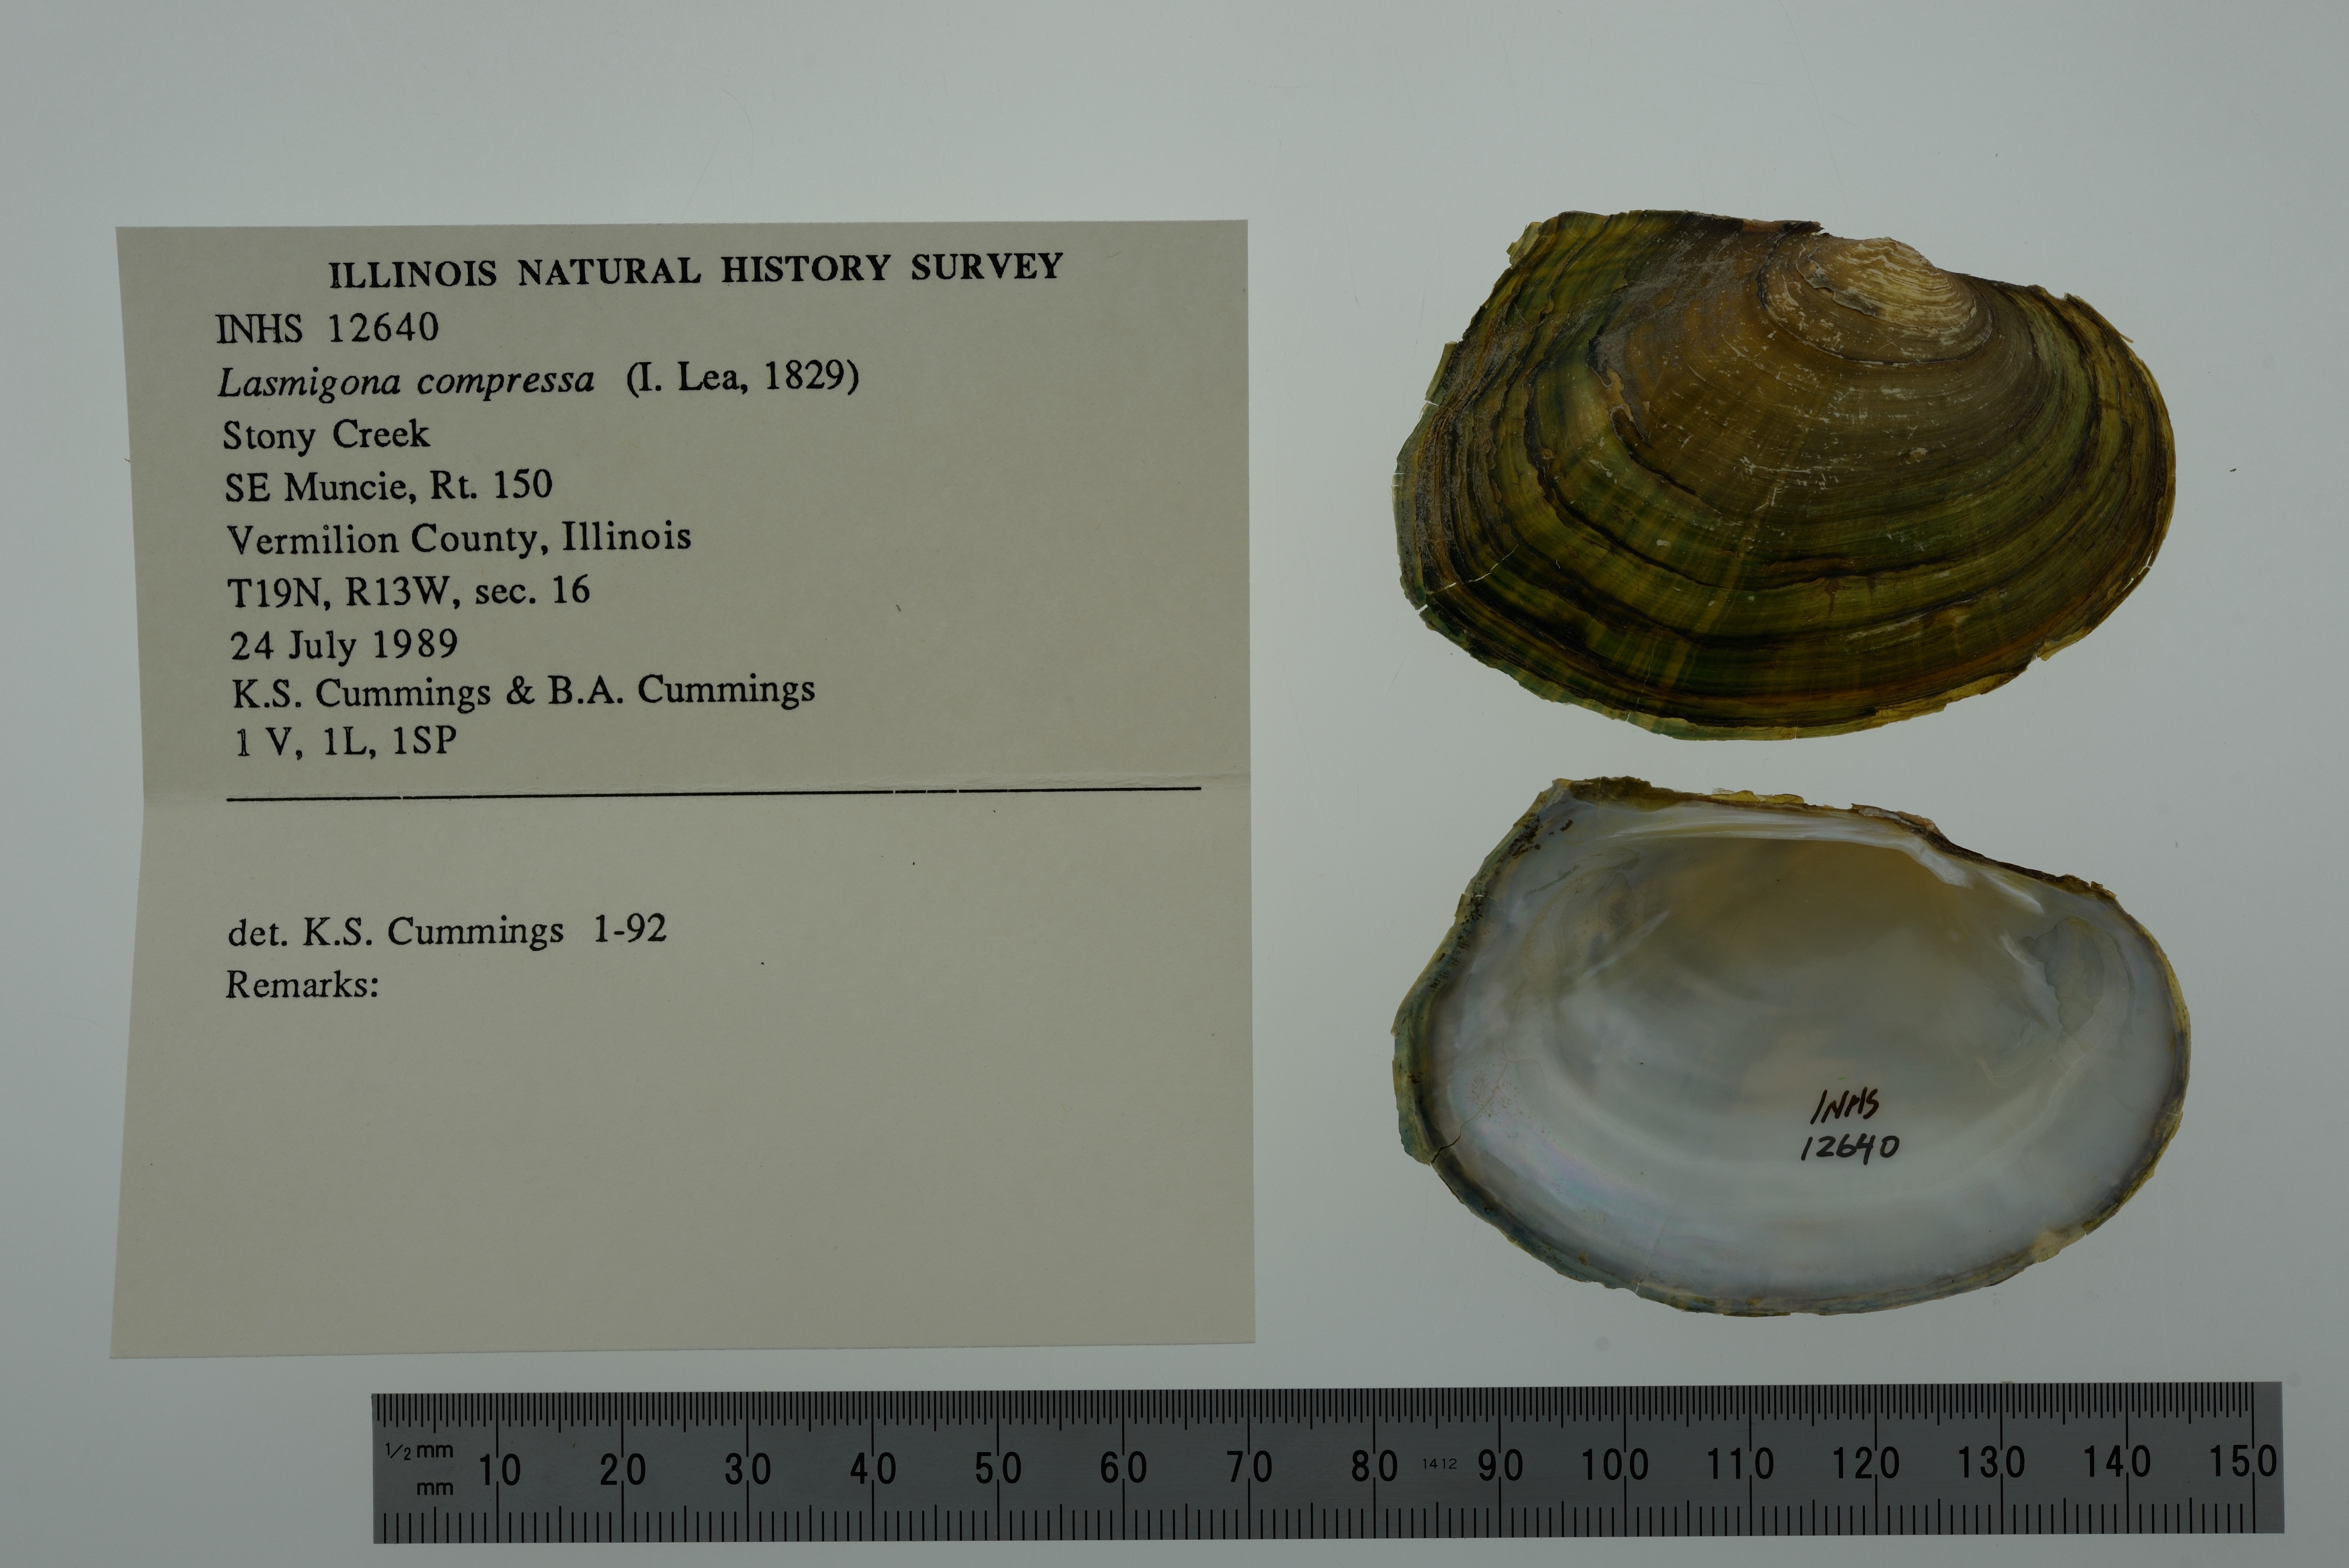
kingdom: Animalia
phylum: Mollusca
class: Bivalvia
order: Unionida
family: Unionidae
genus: Lasmigona
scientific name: Lasmigona compressa
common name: Creek heelsplitter
